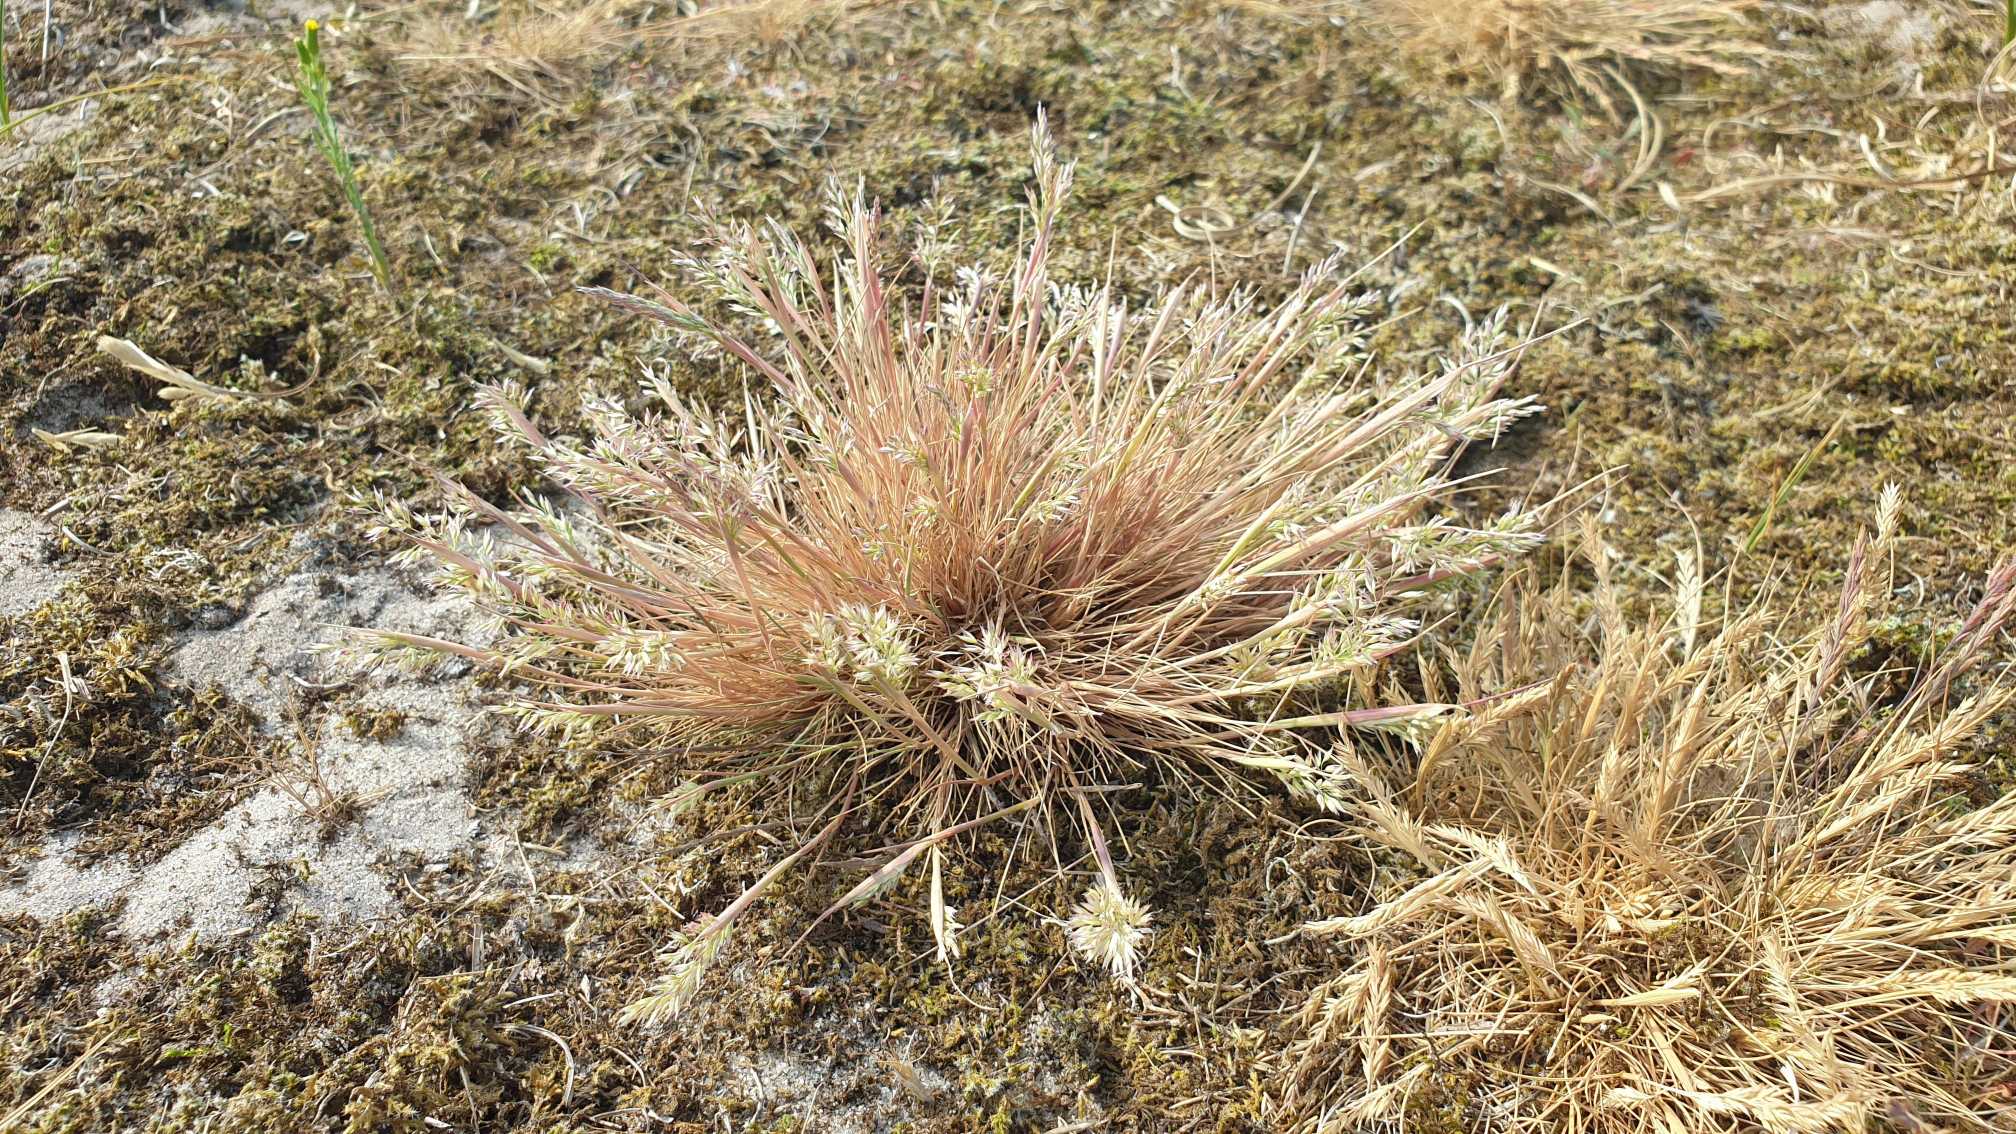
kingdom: Plantae
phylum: Tracheophyta
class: Liliopsida
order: Poales
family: Poaceae
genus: Corynephorus
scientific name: Corynephorus canescens
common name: Sandskæg
